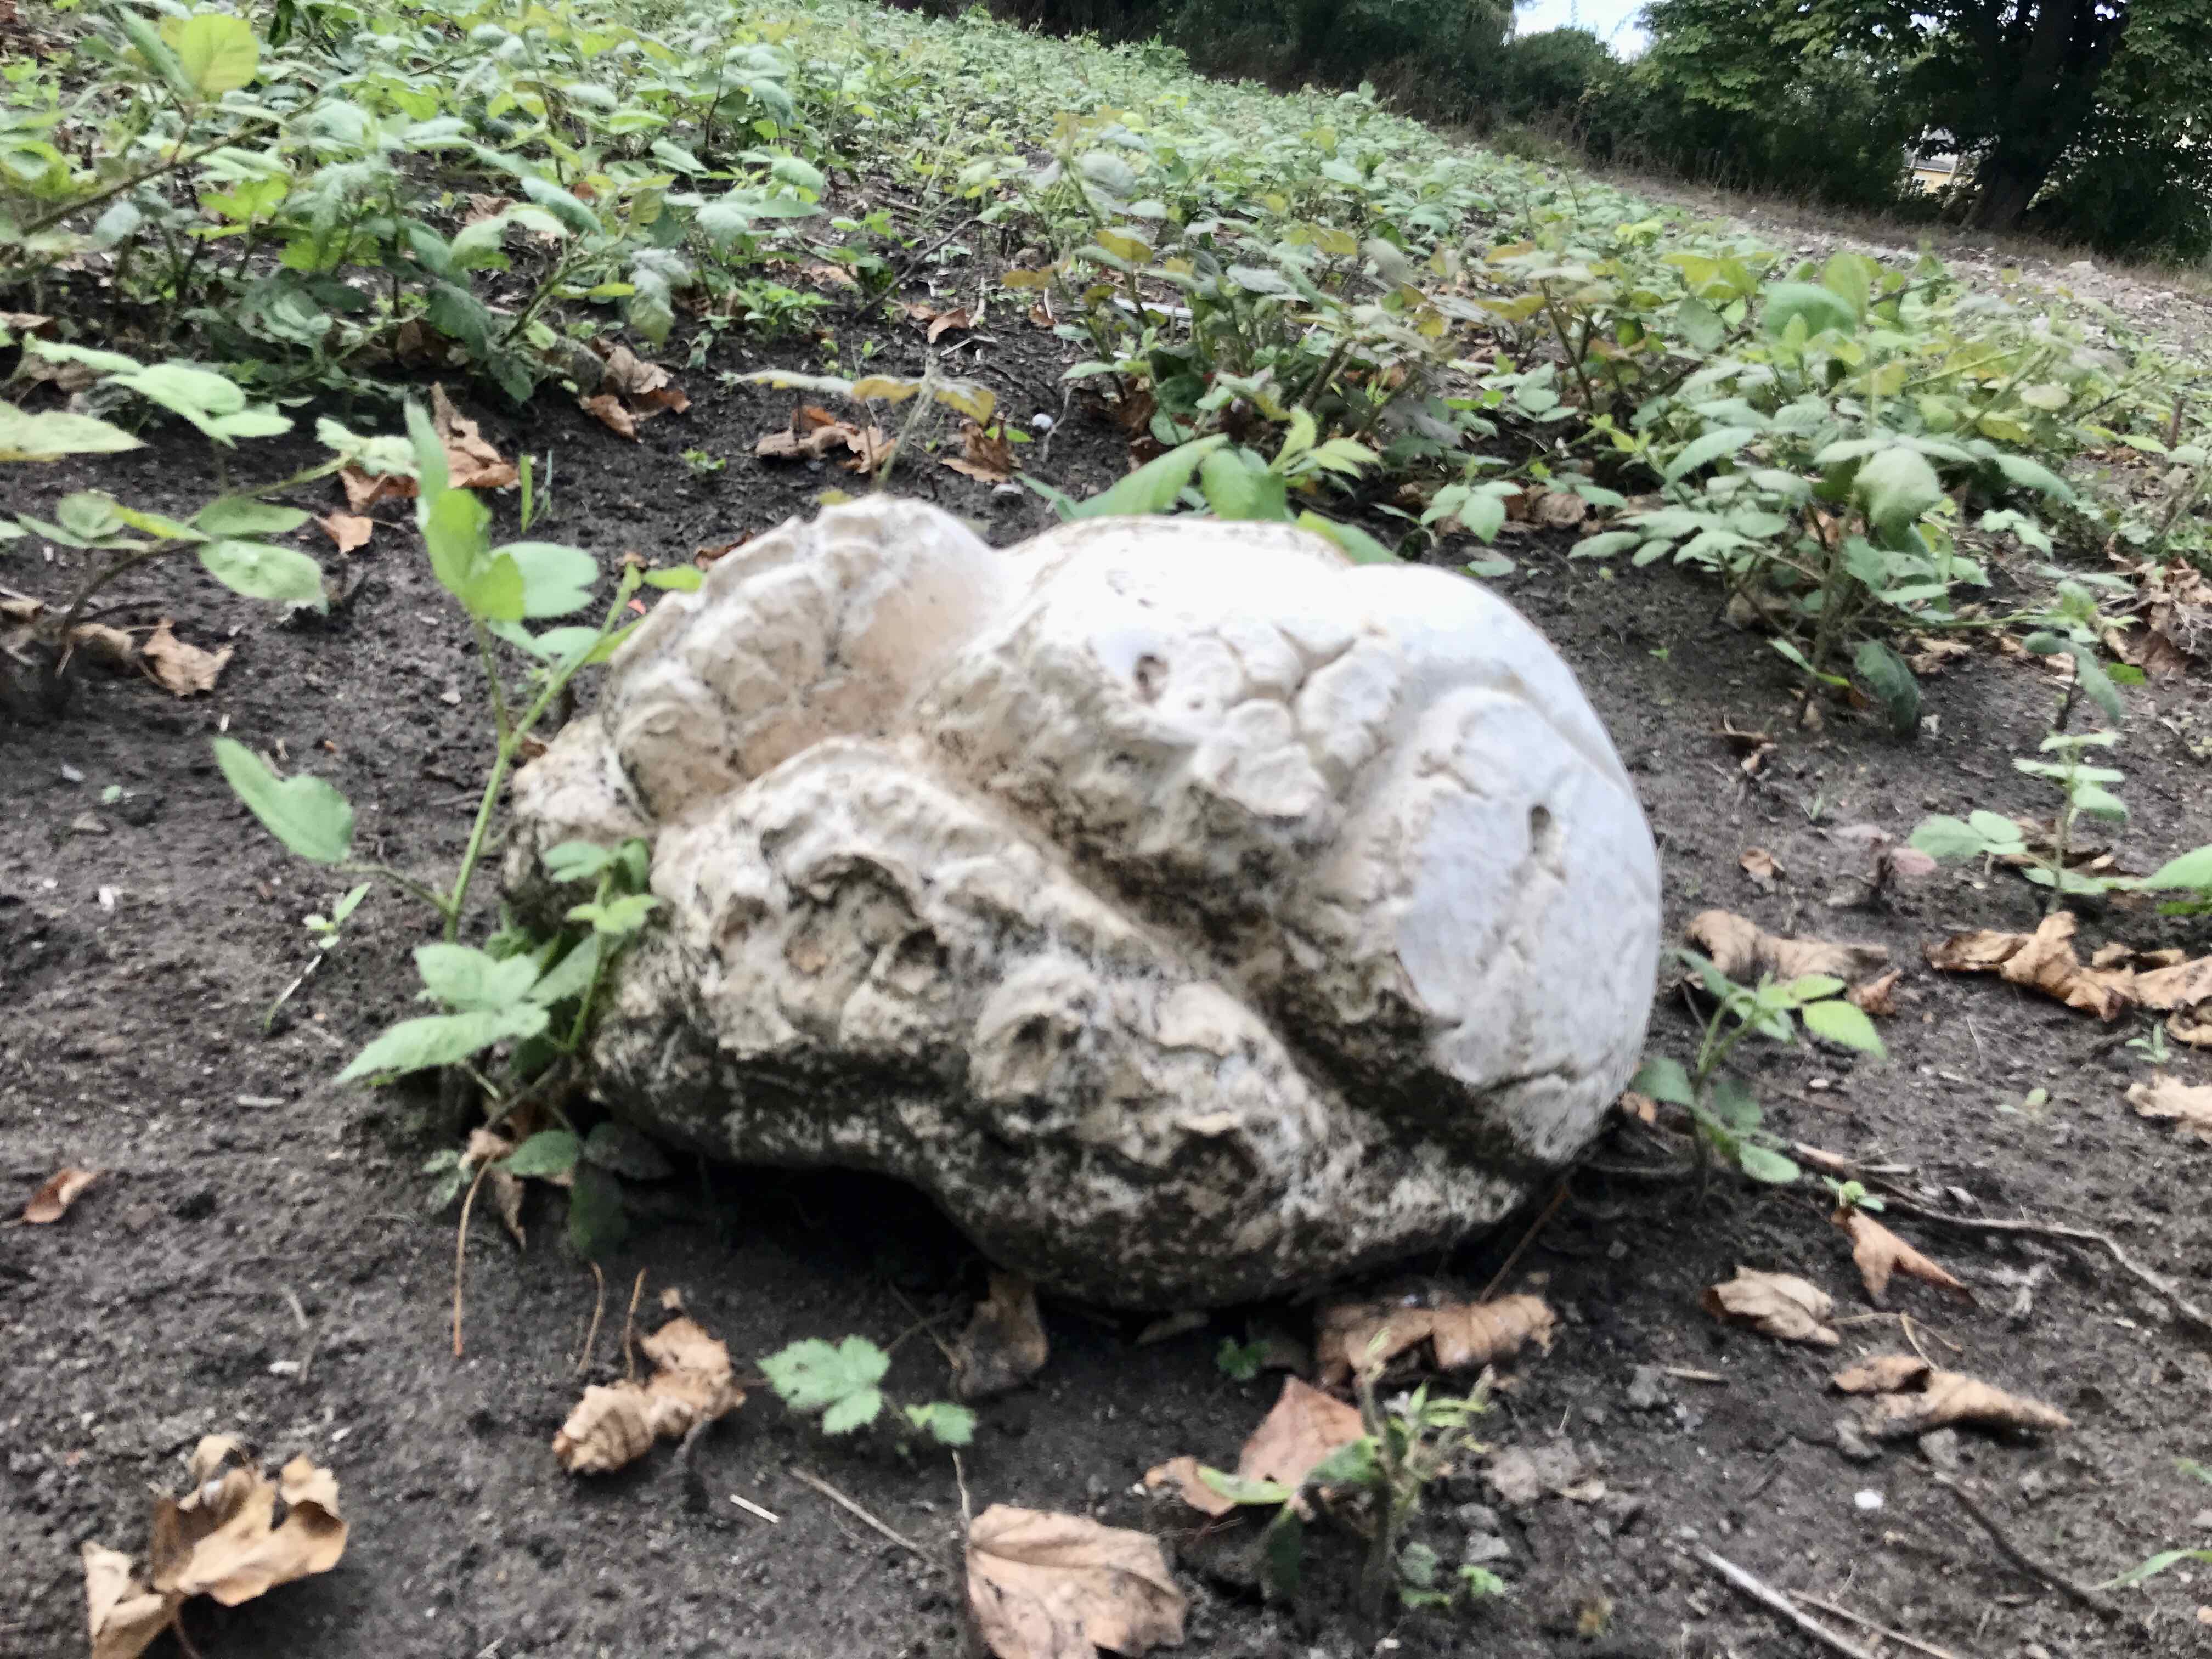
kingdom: Fungi
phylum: Basidiomycota
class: Agaricomycetes
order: Agaricales
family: Lycoperdaceae
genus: Calvatia
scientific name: Calvatia gigantea
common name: kæmpestøvbold
